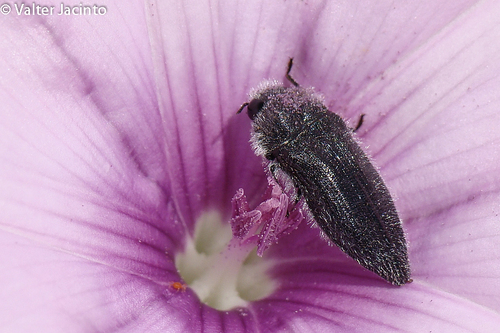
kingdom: Animalia
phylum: Arthropoda
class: Insecta
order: Coleoptera
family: Buprestidae
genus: Acmaeodera
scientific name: Acmaeodera cylindrica
